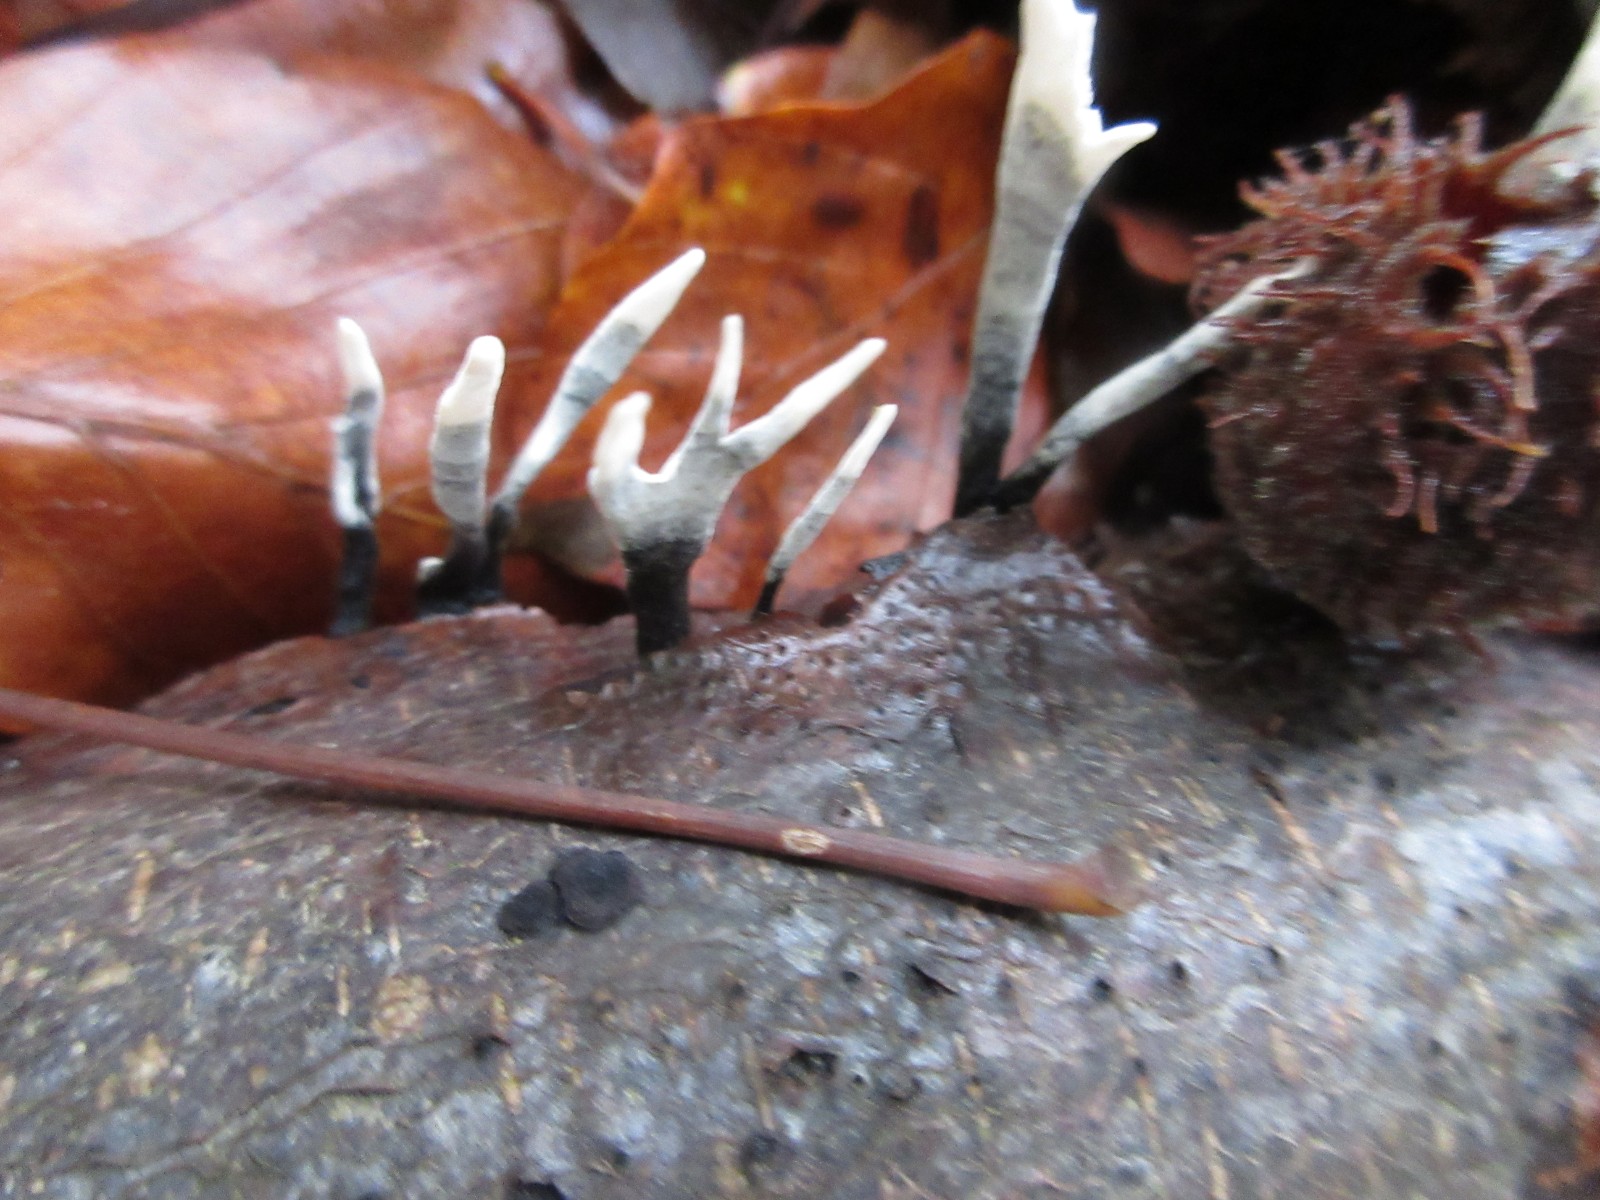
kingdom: Fungi
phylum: Ascomycota
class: Sordariomycetes
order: Xylariales
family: Xylariaceae
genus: Xylaria
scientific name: Xylaria hypoxylon
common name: grenet stødsvamp
